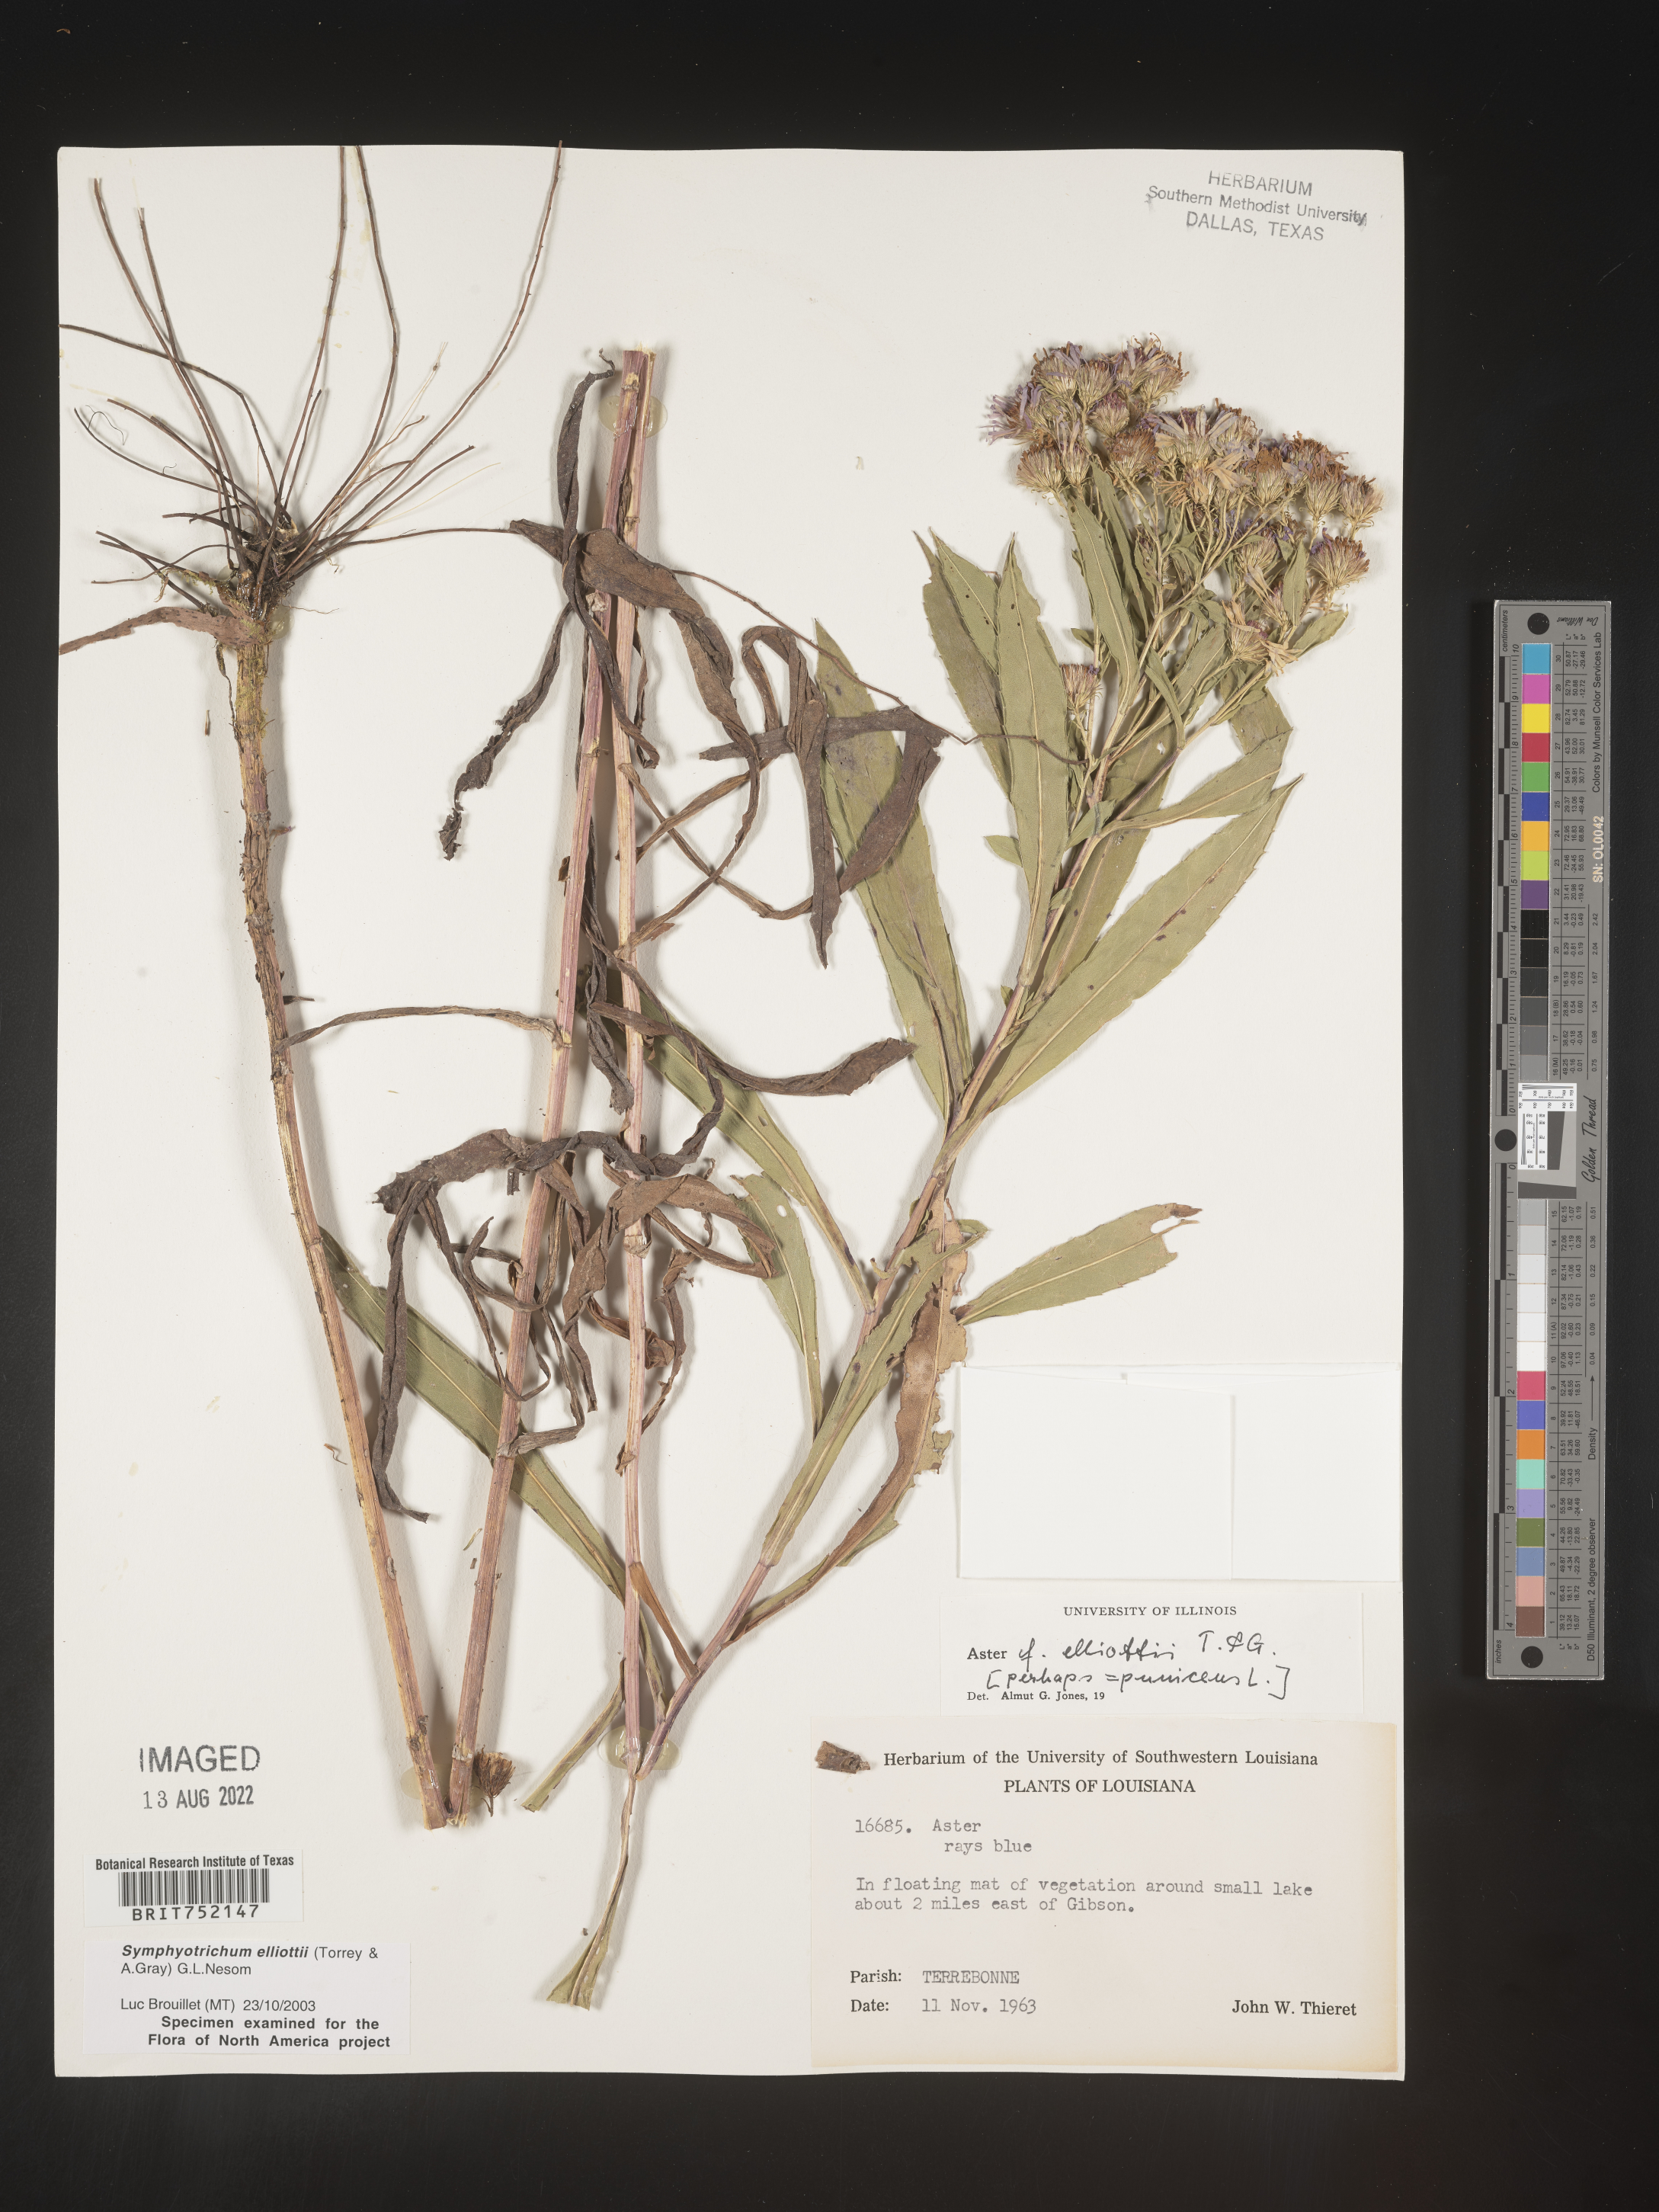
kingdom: Plantae
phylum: Tracheophyta
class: Magnoliopsida
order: Asterales
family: Asteraceae
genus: Symphyotrichum
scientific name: Symphyotrichum elliottii
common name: Southern swamp aster
